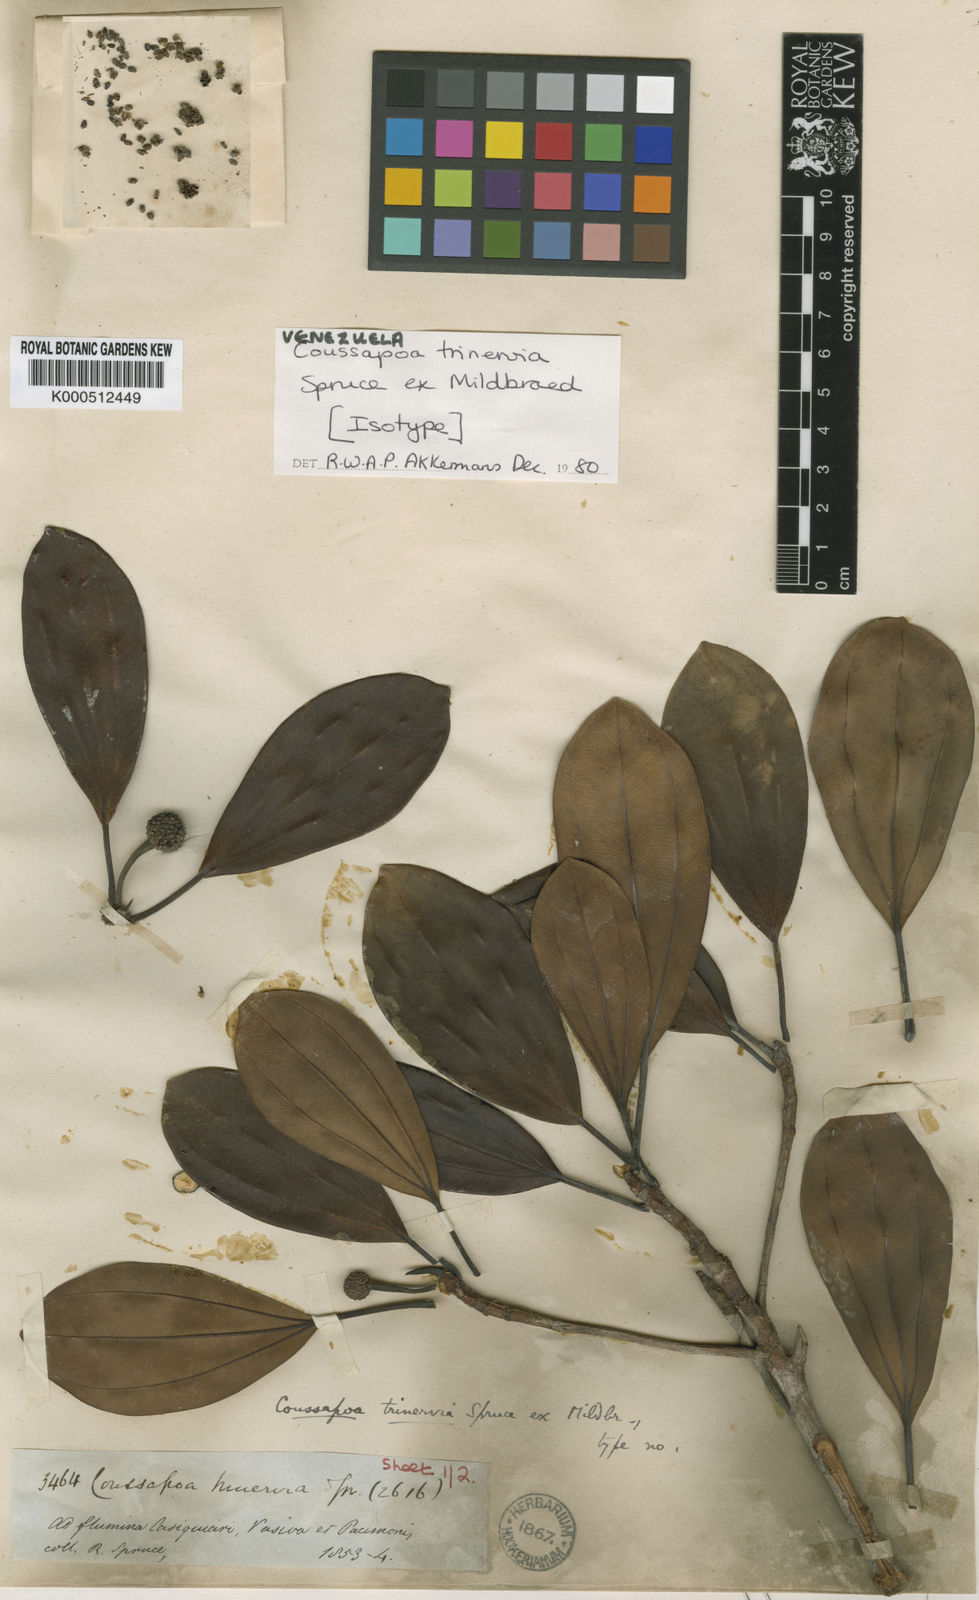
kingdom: Plantae
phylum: Tracheophyta
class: Magnoliopsida
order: Rosales
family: Urticaceae
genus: Coussapoa
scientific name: Coussapoa trinervia
